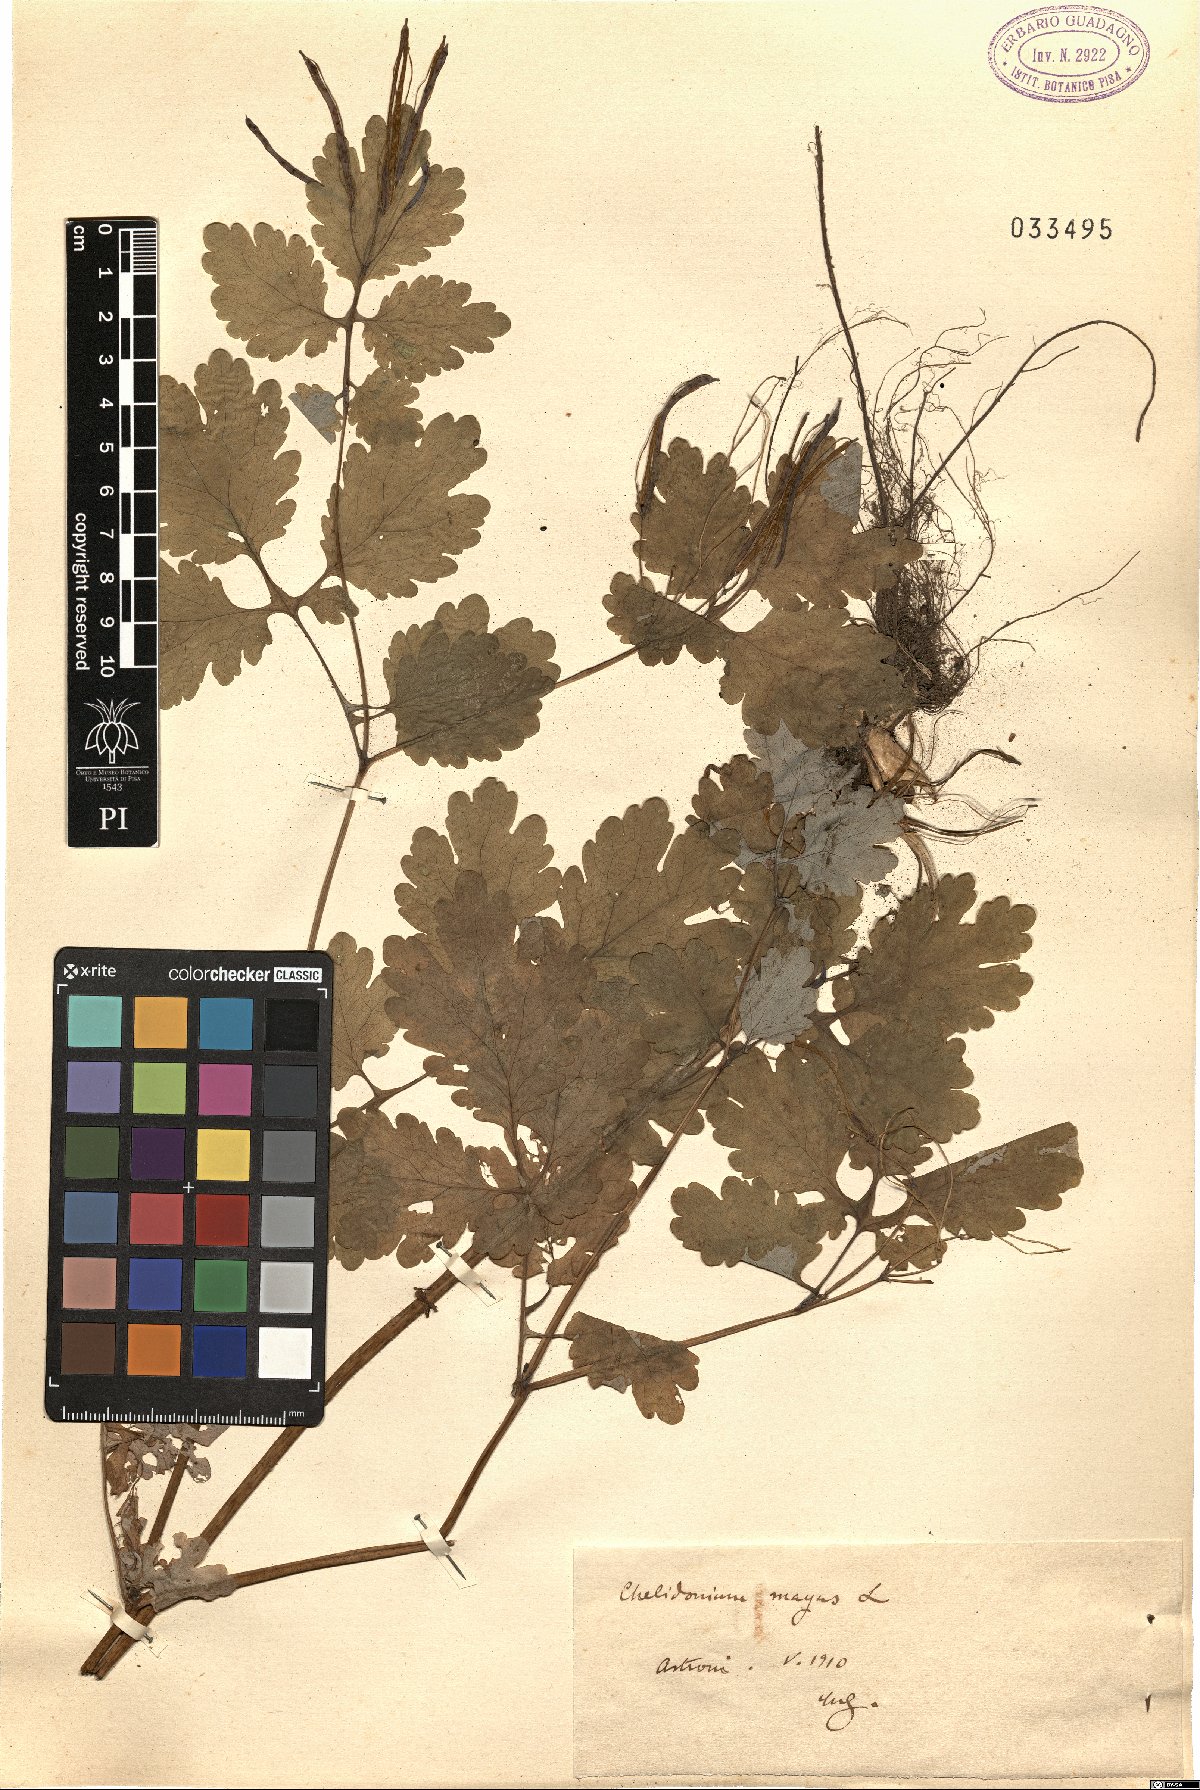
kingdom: Plantae
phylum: Tracheophyta
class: Magnoliopsida
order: Ranunculales
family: Papaveraceae
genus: Chelidonium
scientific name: Chelidonium majus
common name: Greater celandine
